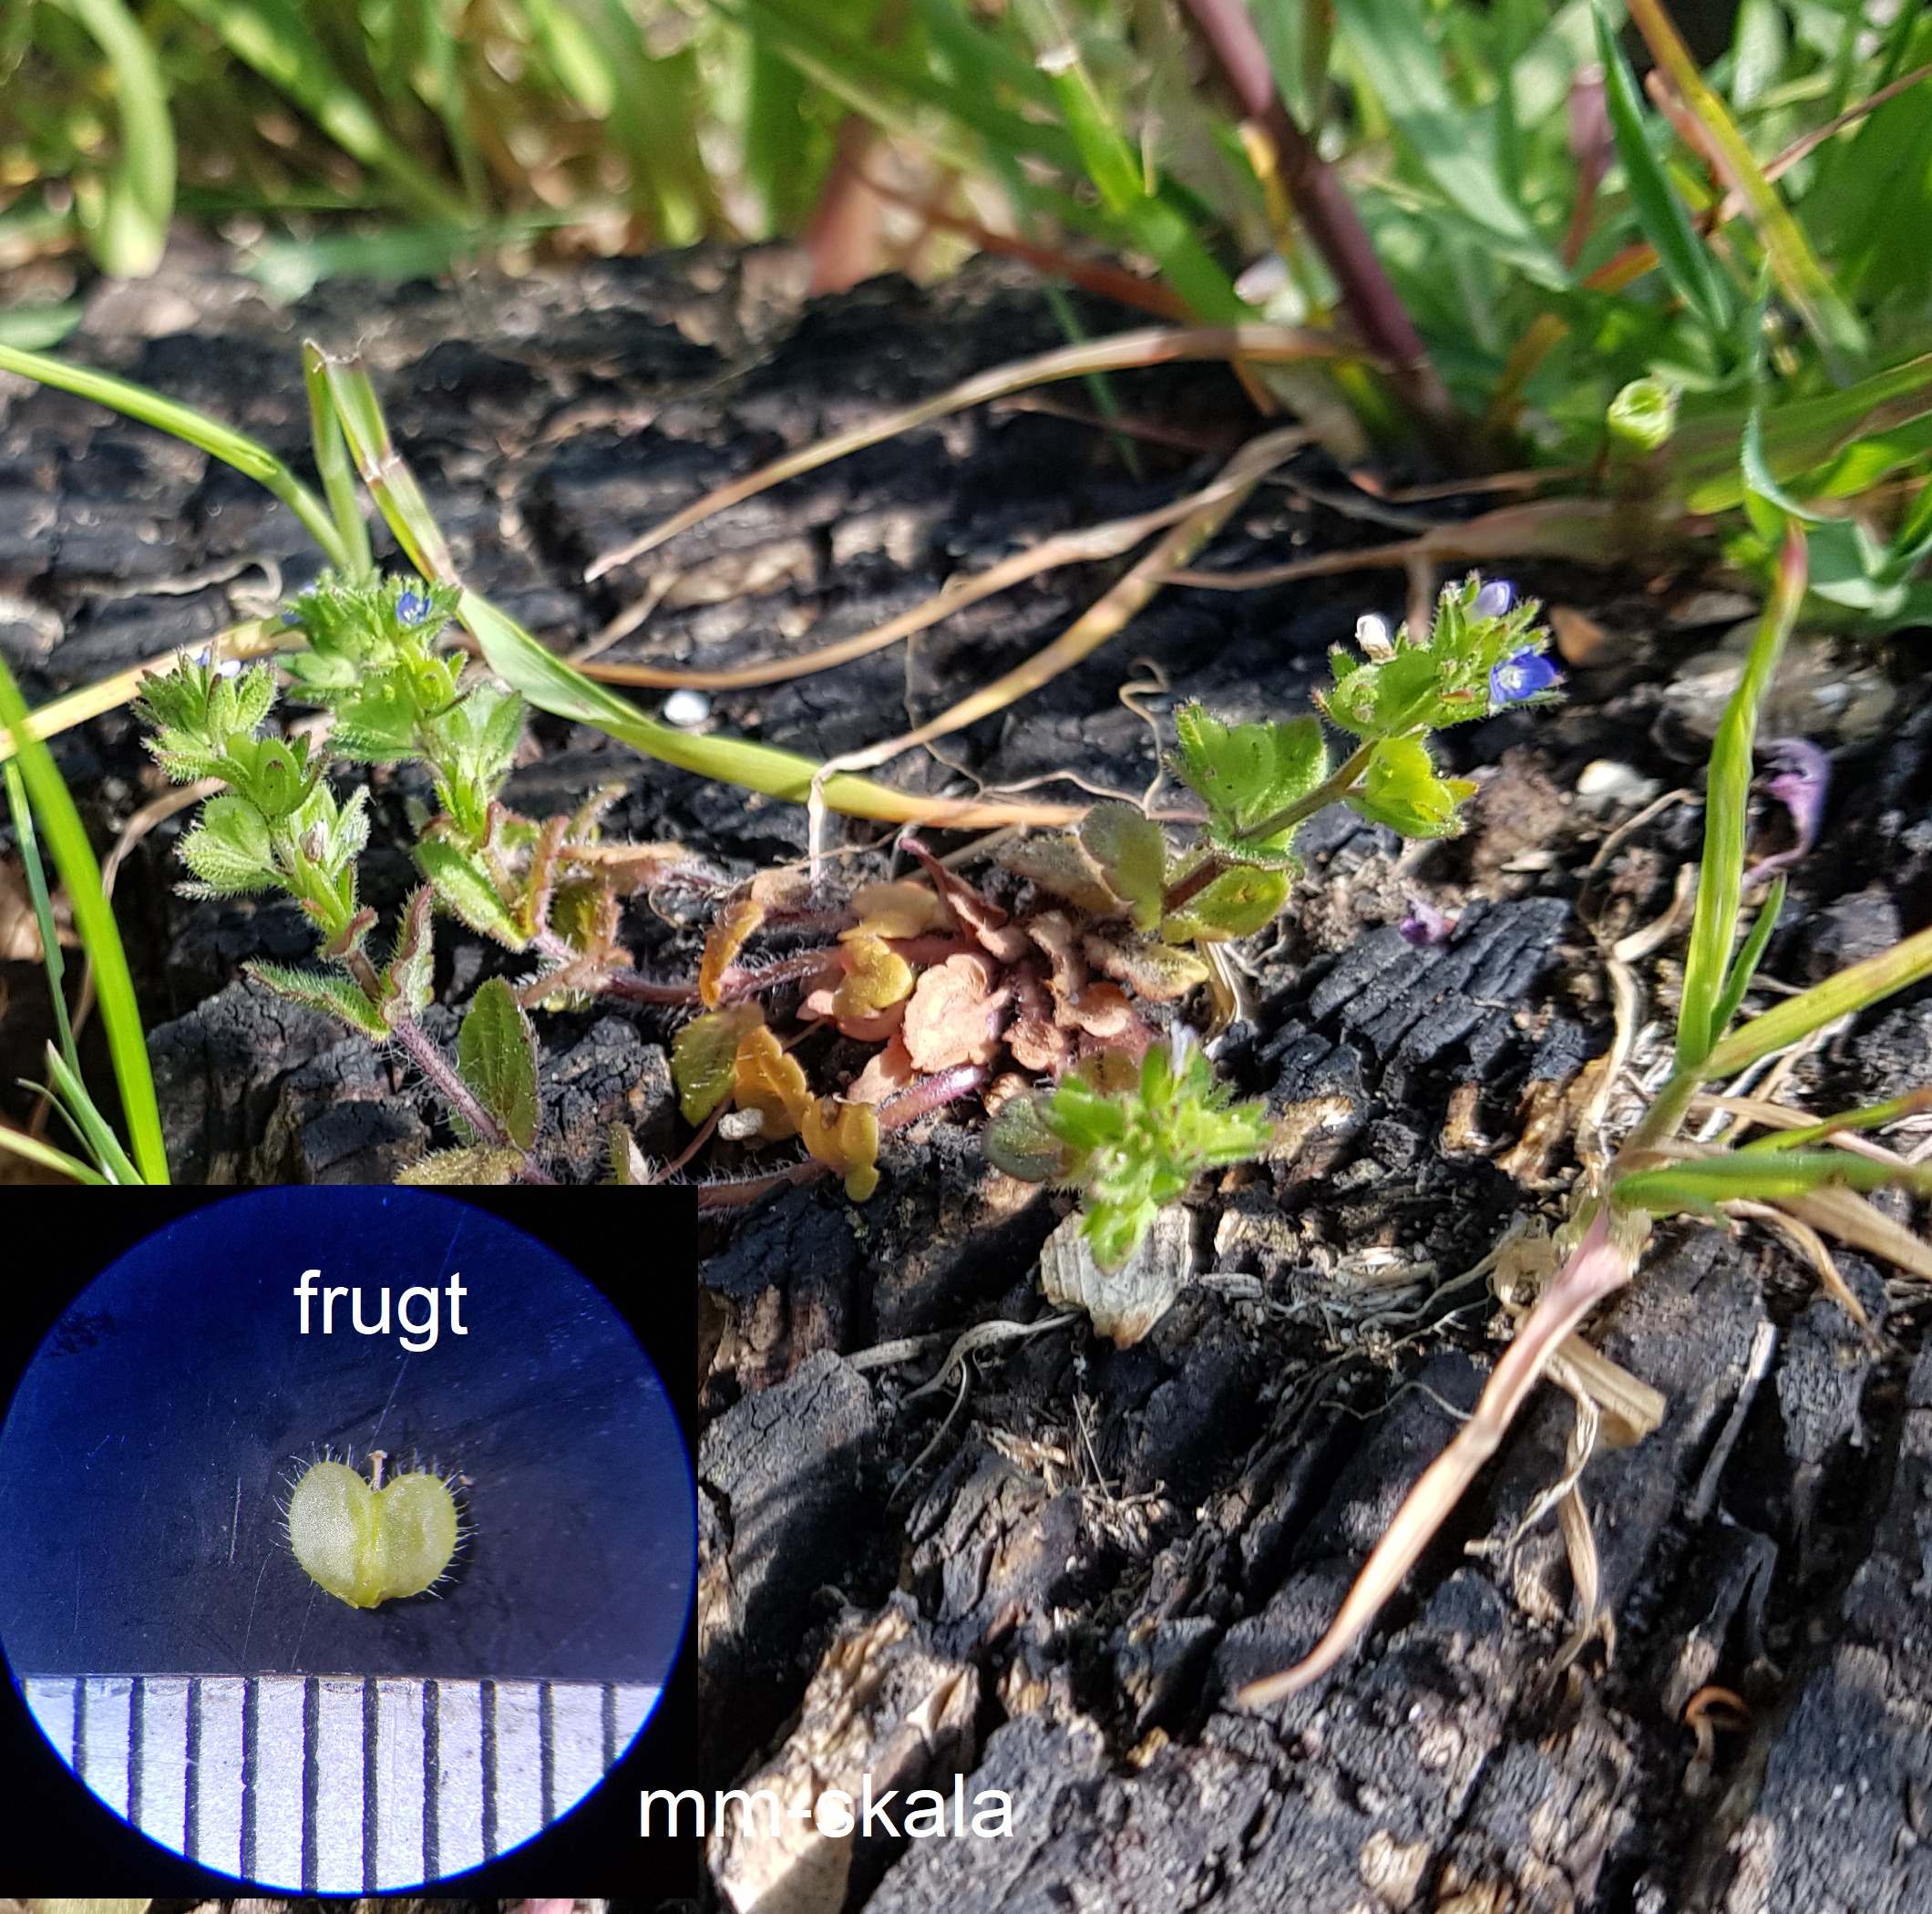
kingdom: Plantae
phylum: Tracheophyta
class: Magnoliopsida
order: Lamiales
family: Plantaginaceae
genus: Veronica
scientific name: Veronica arvensis
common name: Mark-ærenpris
